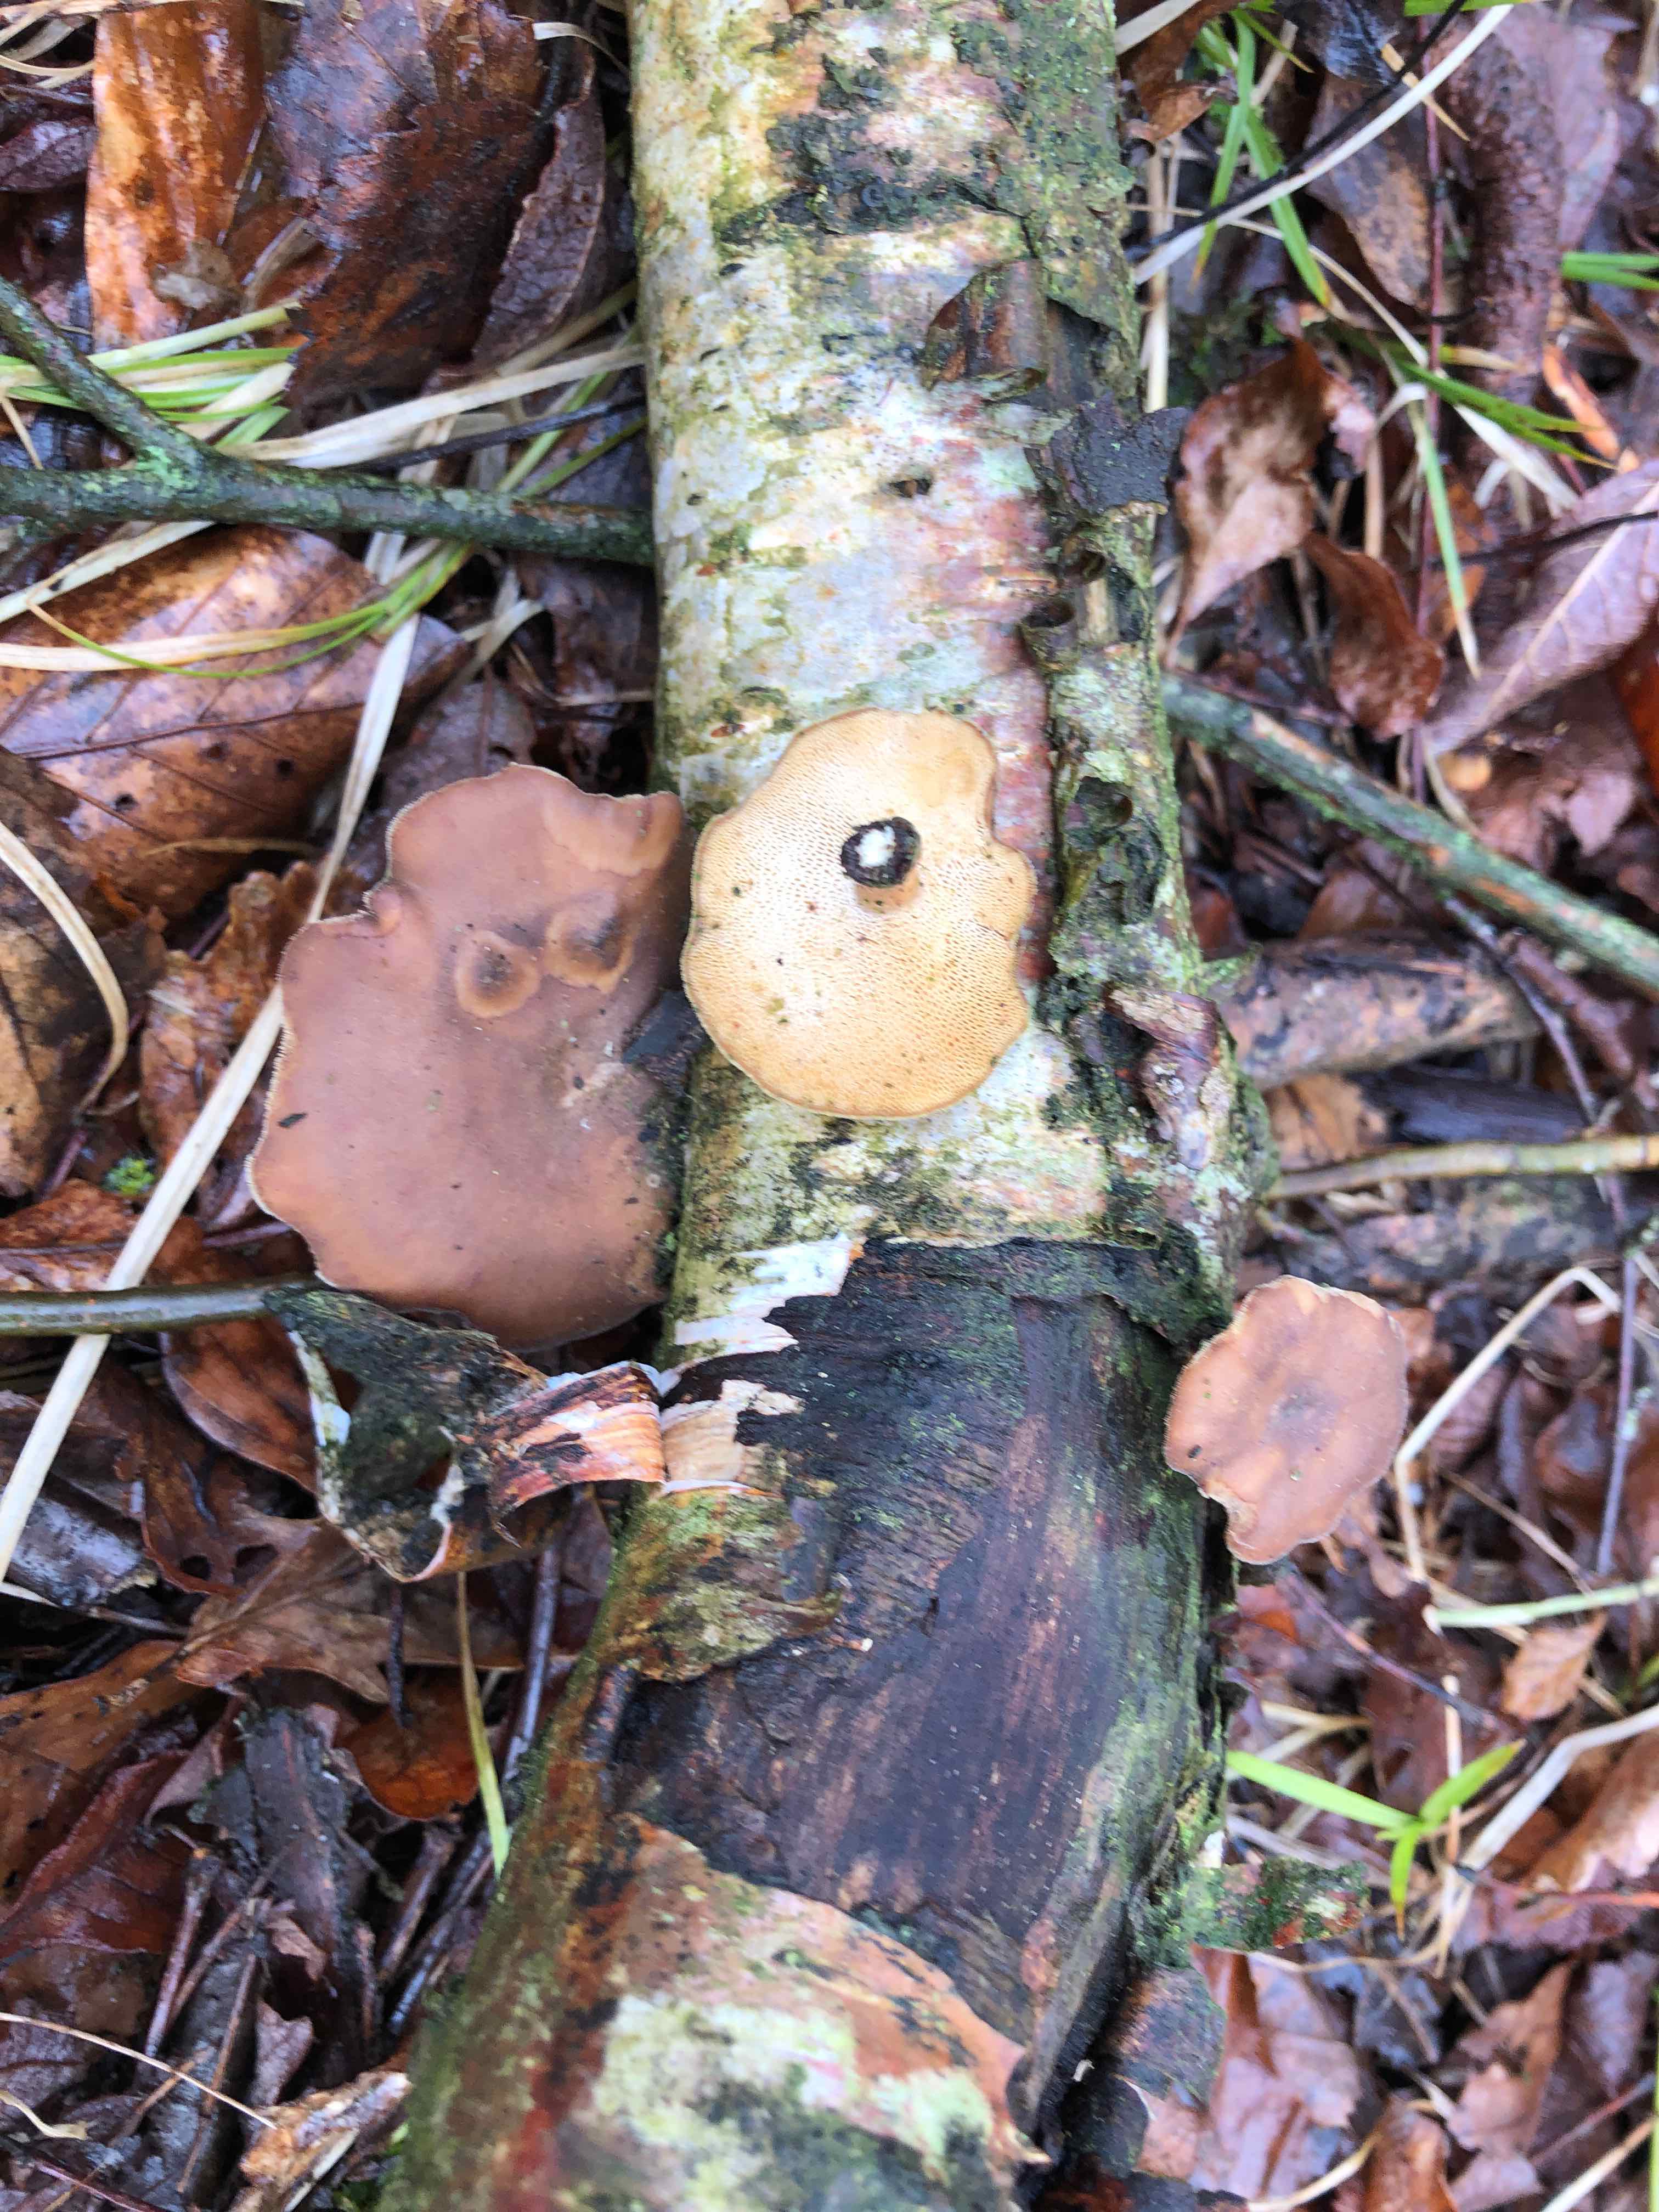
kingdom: Fungi
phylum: Basidiomycota
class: Agaricomycetes
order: Polyporales
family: Polyporaceae
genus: Lentinus
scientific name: Lentinus brumalis
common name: vinter-stilkporesvamp
